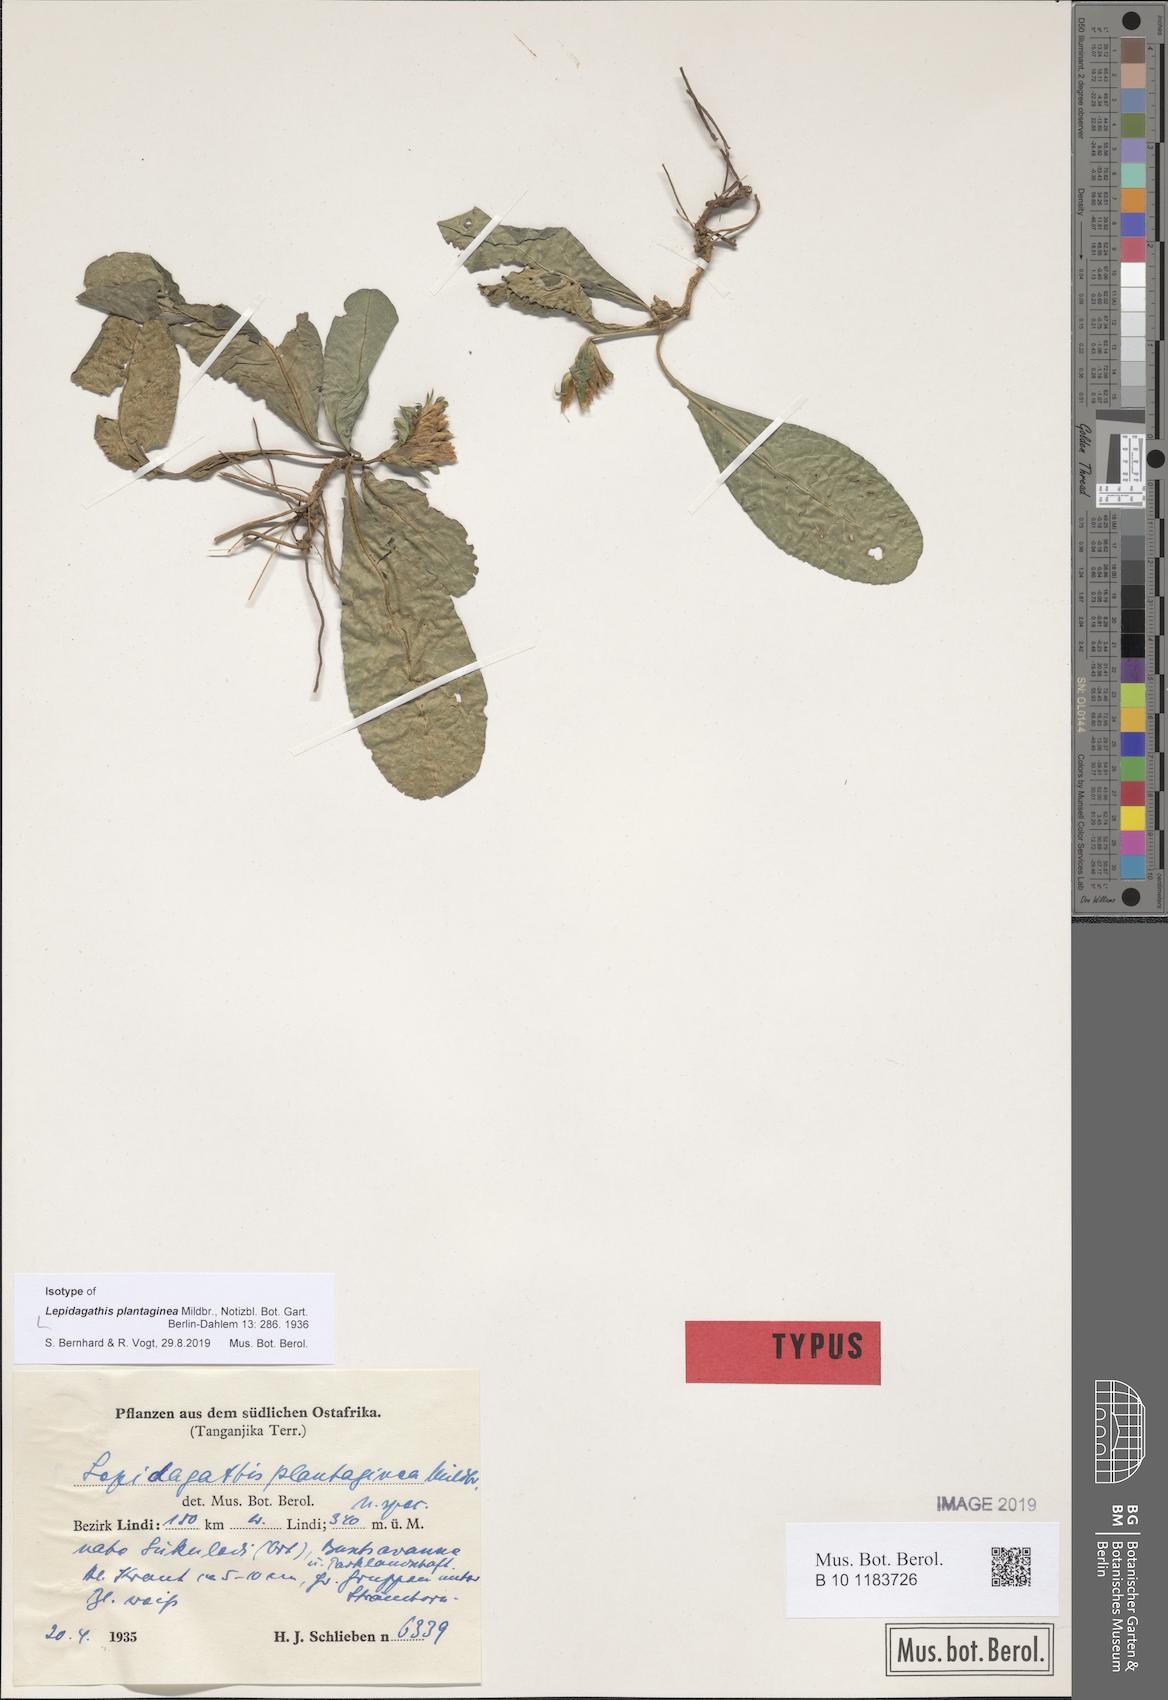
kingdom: Plantae
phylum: Tracheophyta
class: Magnoliopsida
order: Lamiales
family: Acanthaceae
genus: Lepidagathis
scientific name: Lepidagathis plantaginea
